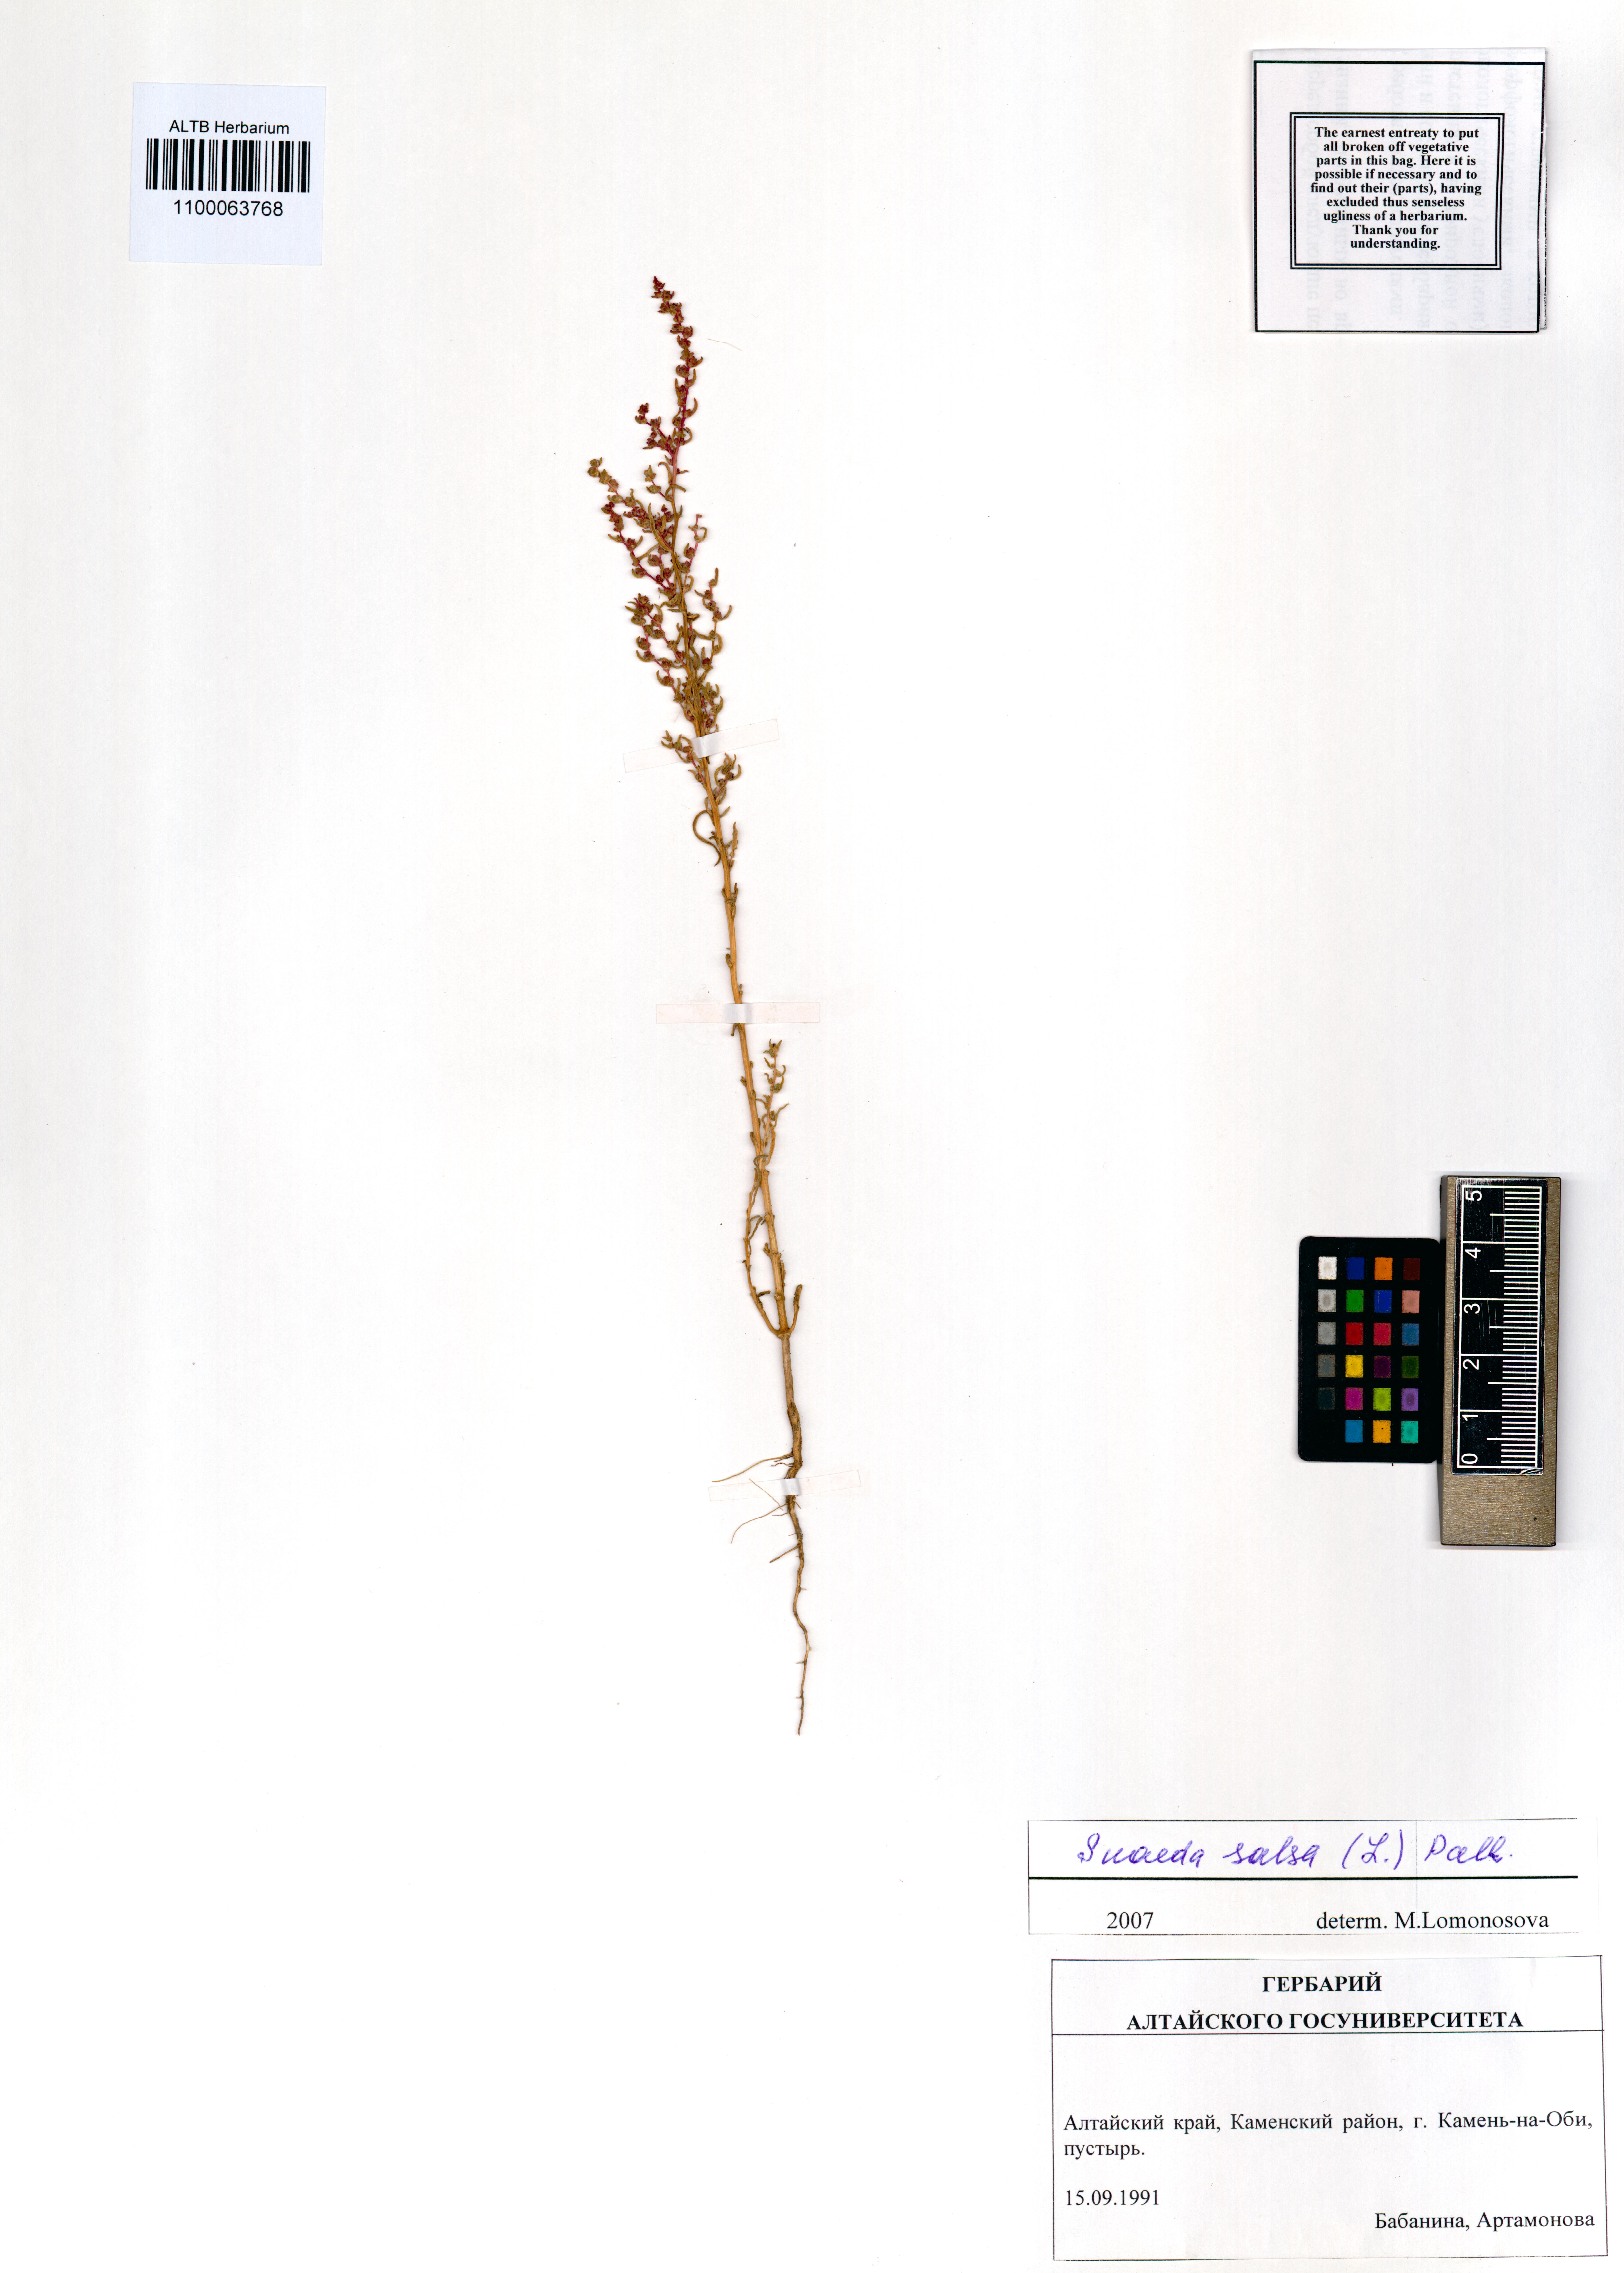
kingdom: Plantae
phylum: Tracheophyta
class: Magnoliopsida
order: Caryophyllales
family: Amaranthaceae
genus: Suaeda
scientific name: Suaeda salsa
